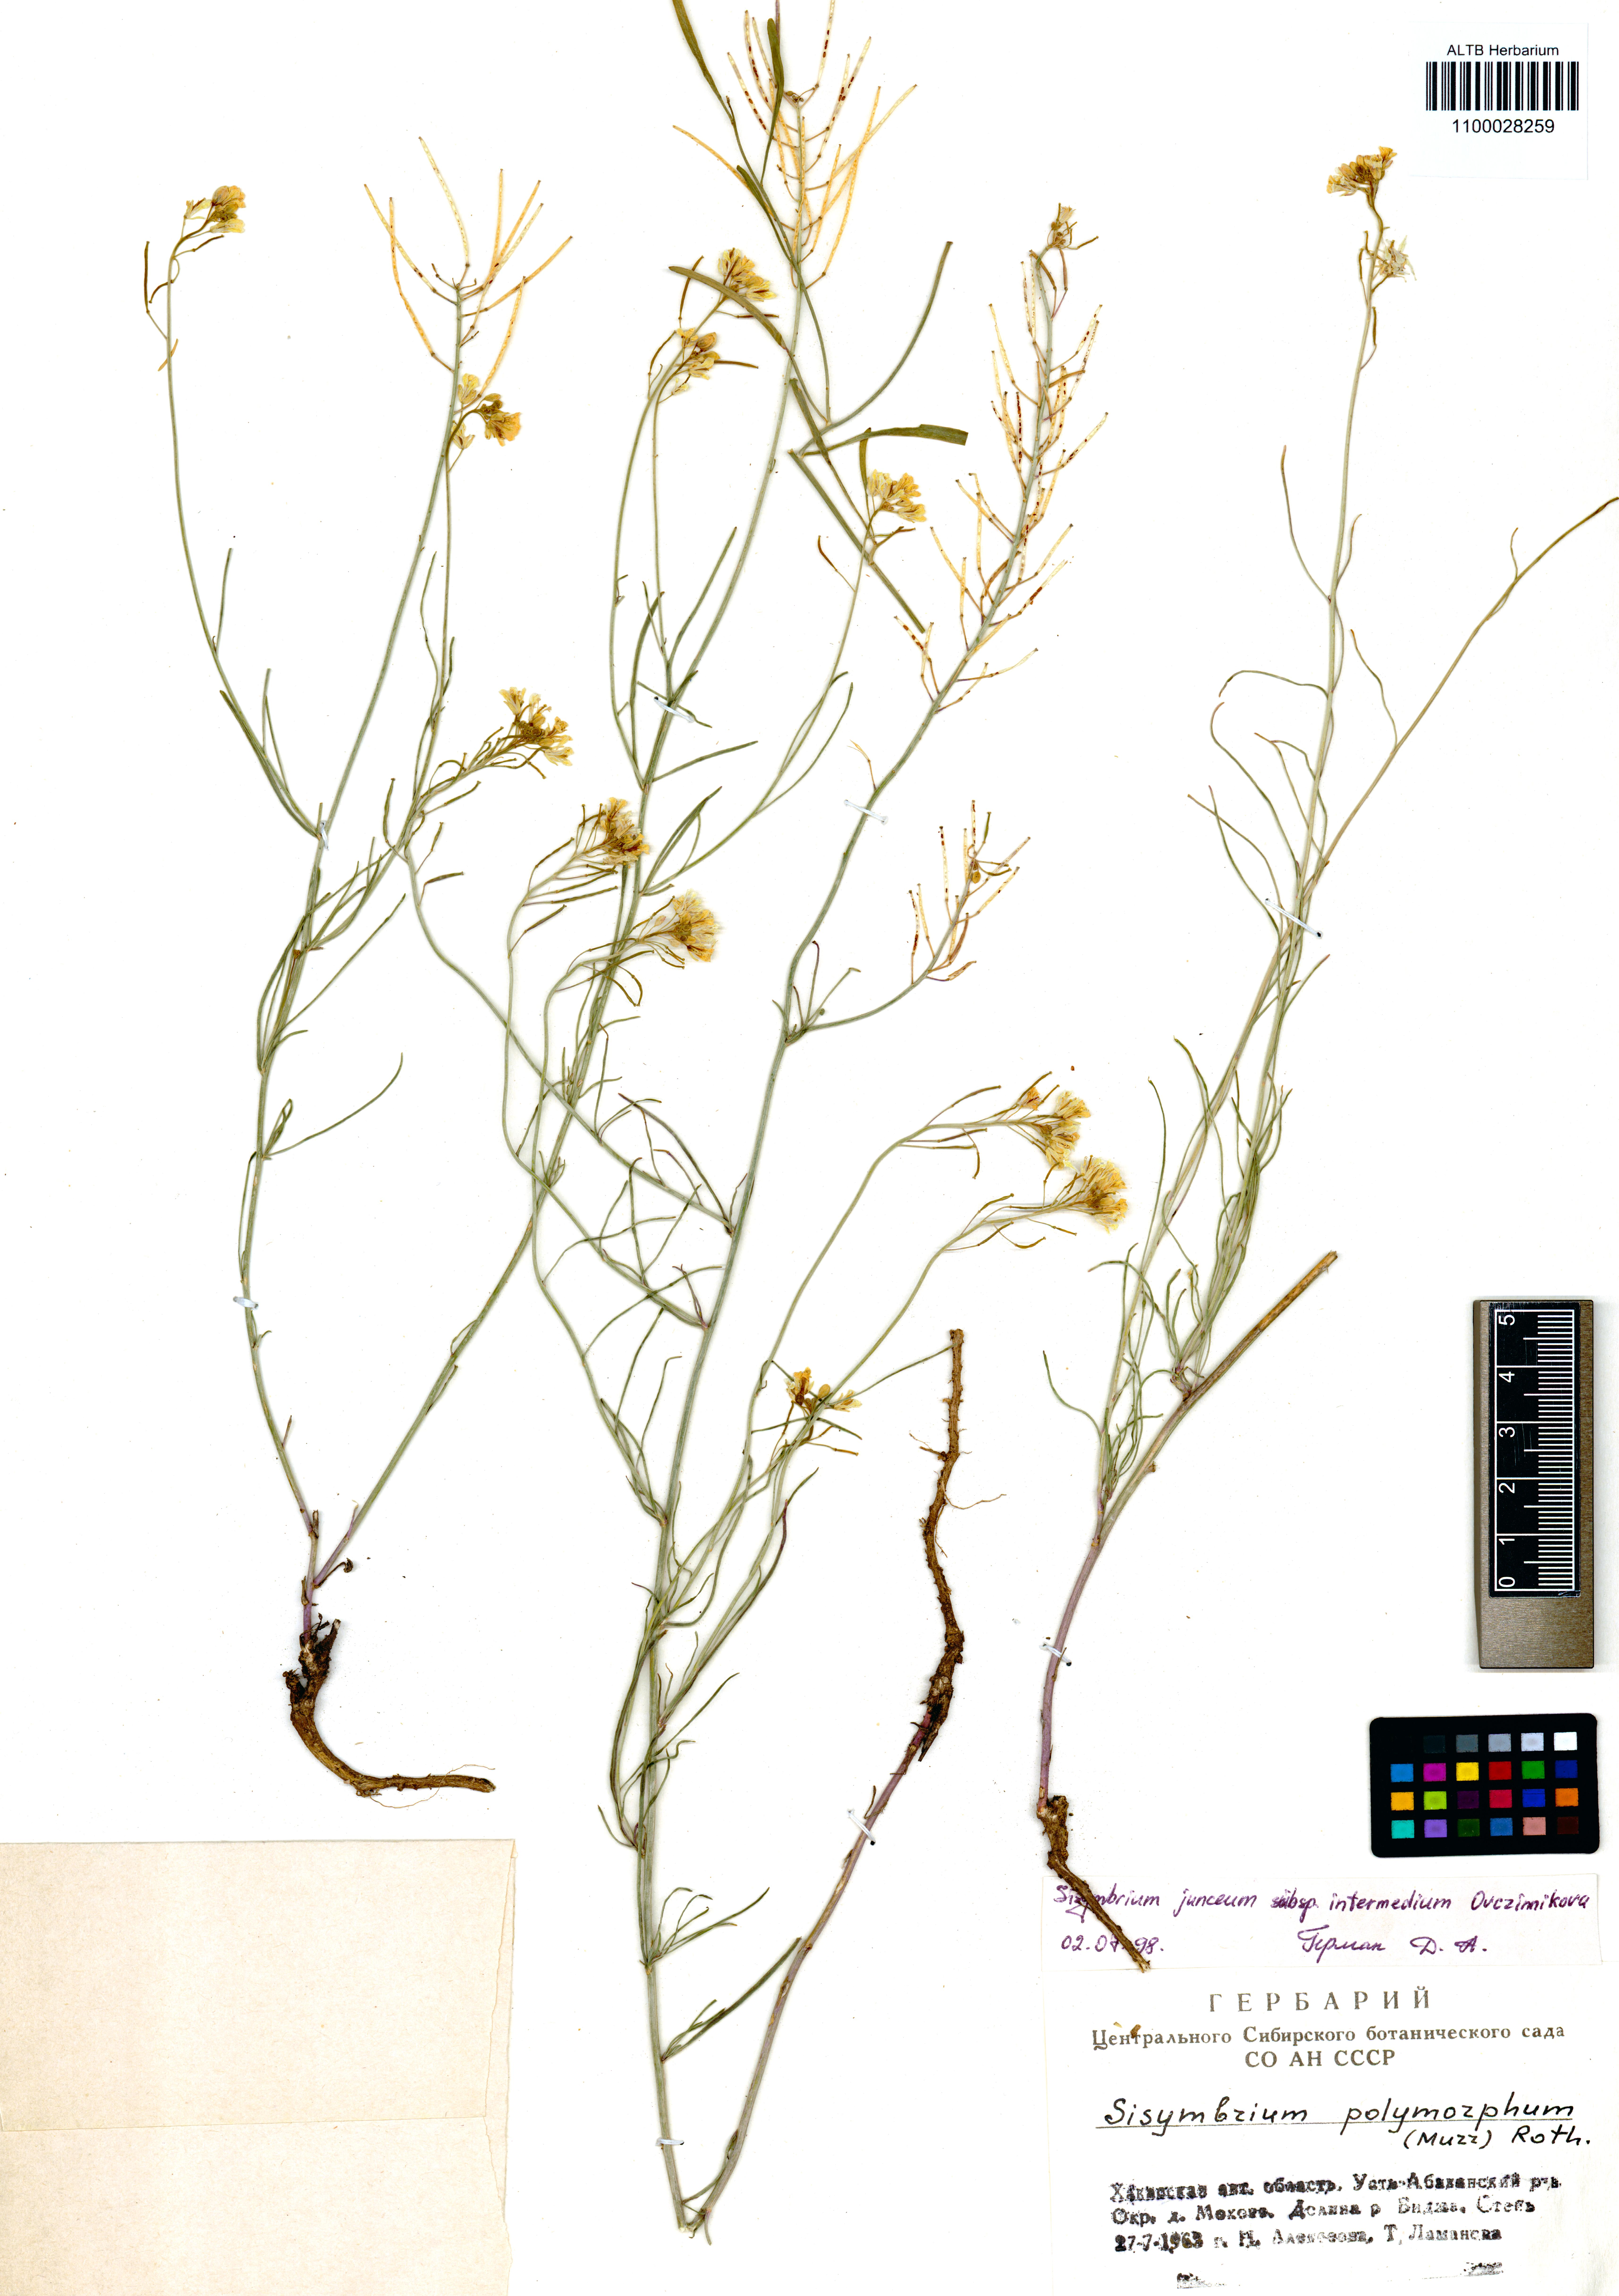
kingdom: Plantae
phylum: Tracheophyta
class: Magnoliopsida
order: Brassicales
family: Brassicaceae
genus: Sisymbrium
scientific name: Sisymbrium polymorphum
